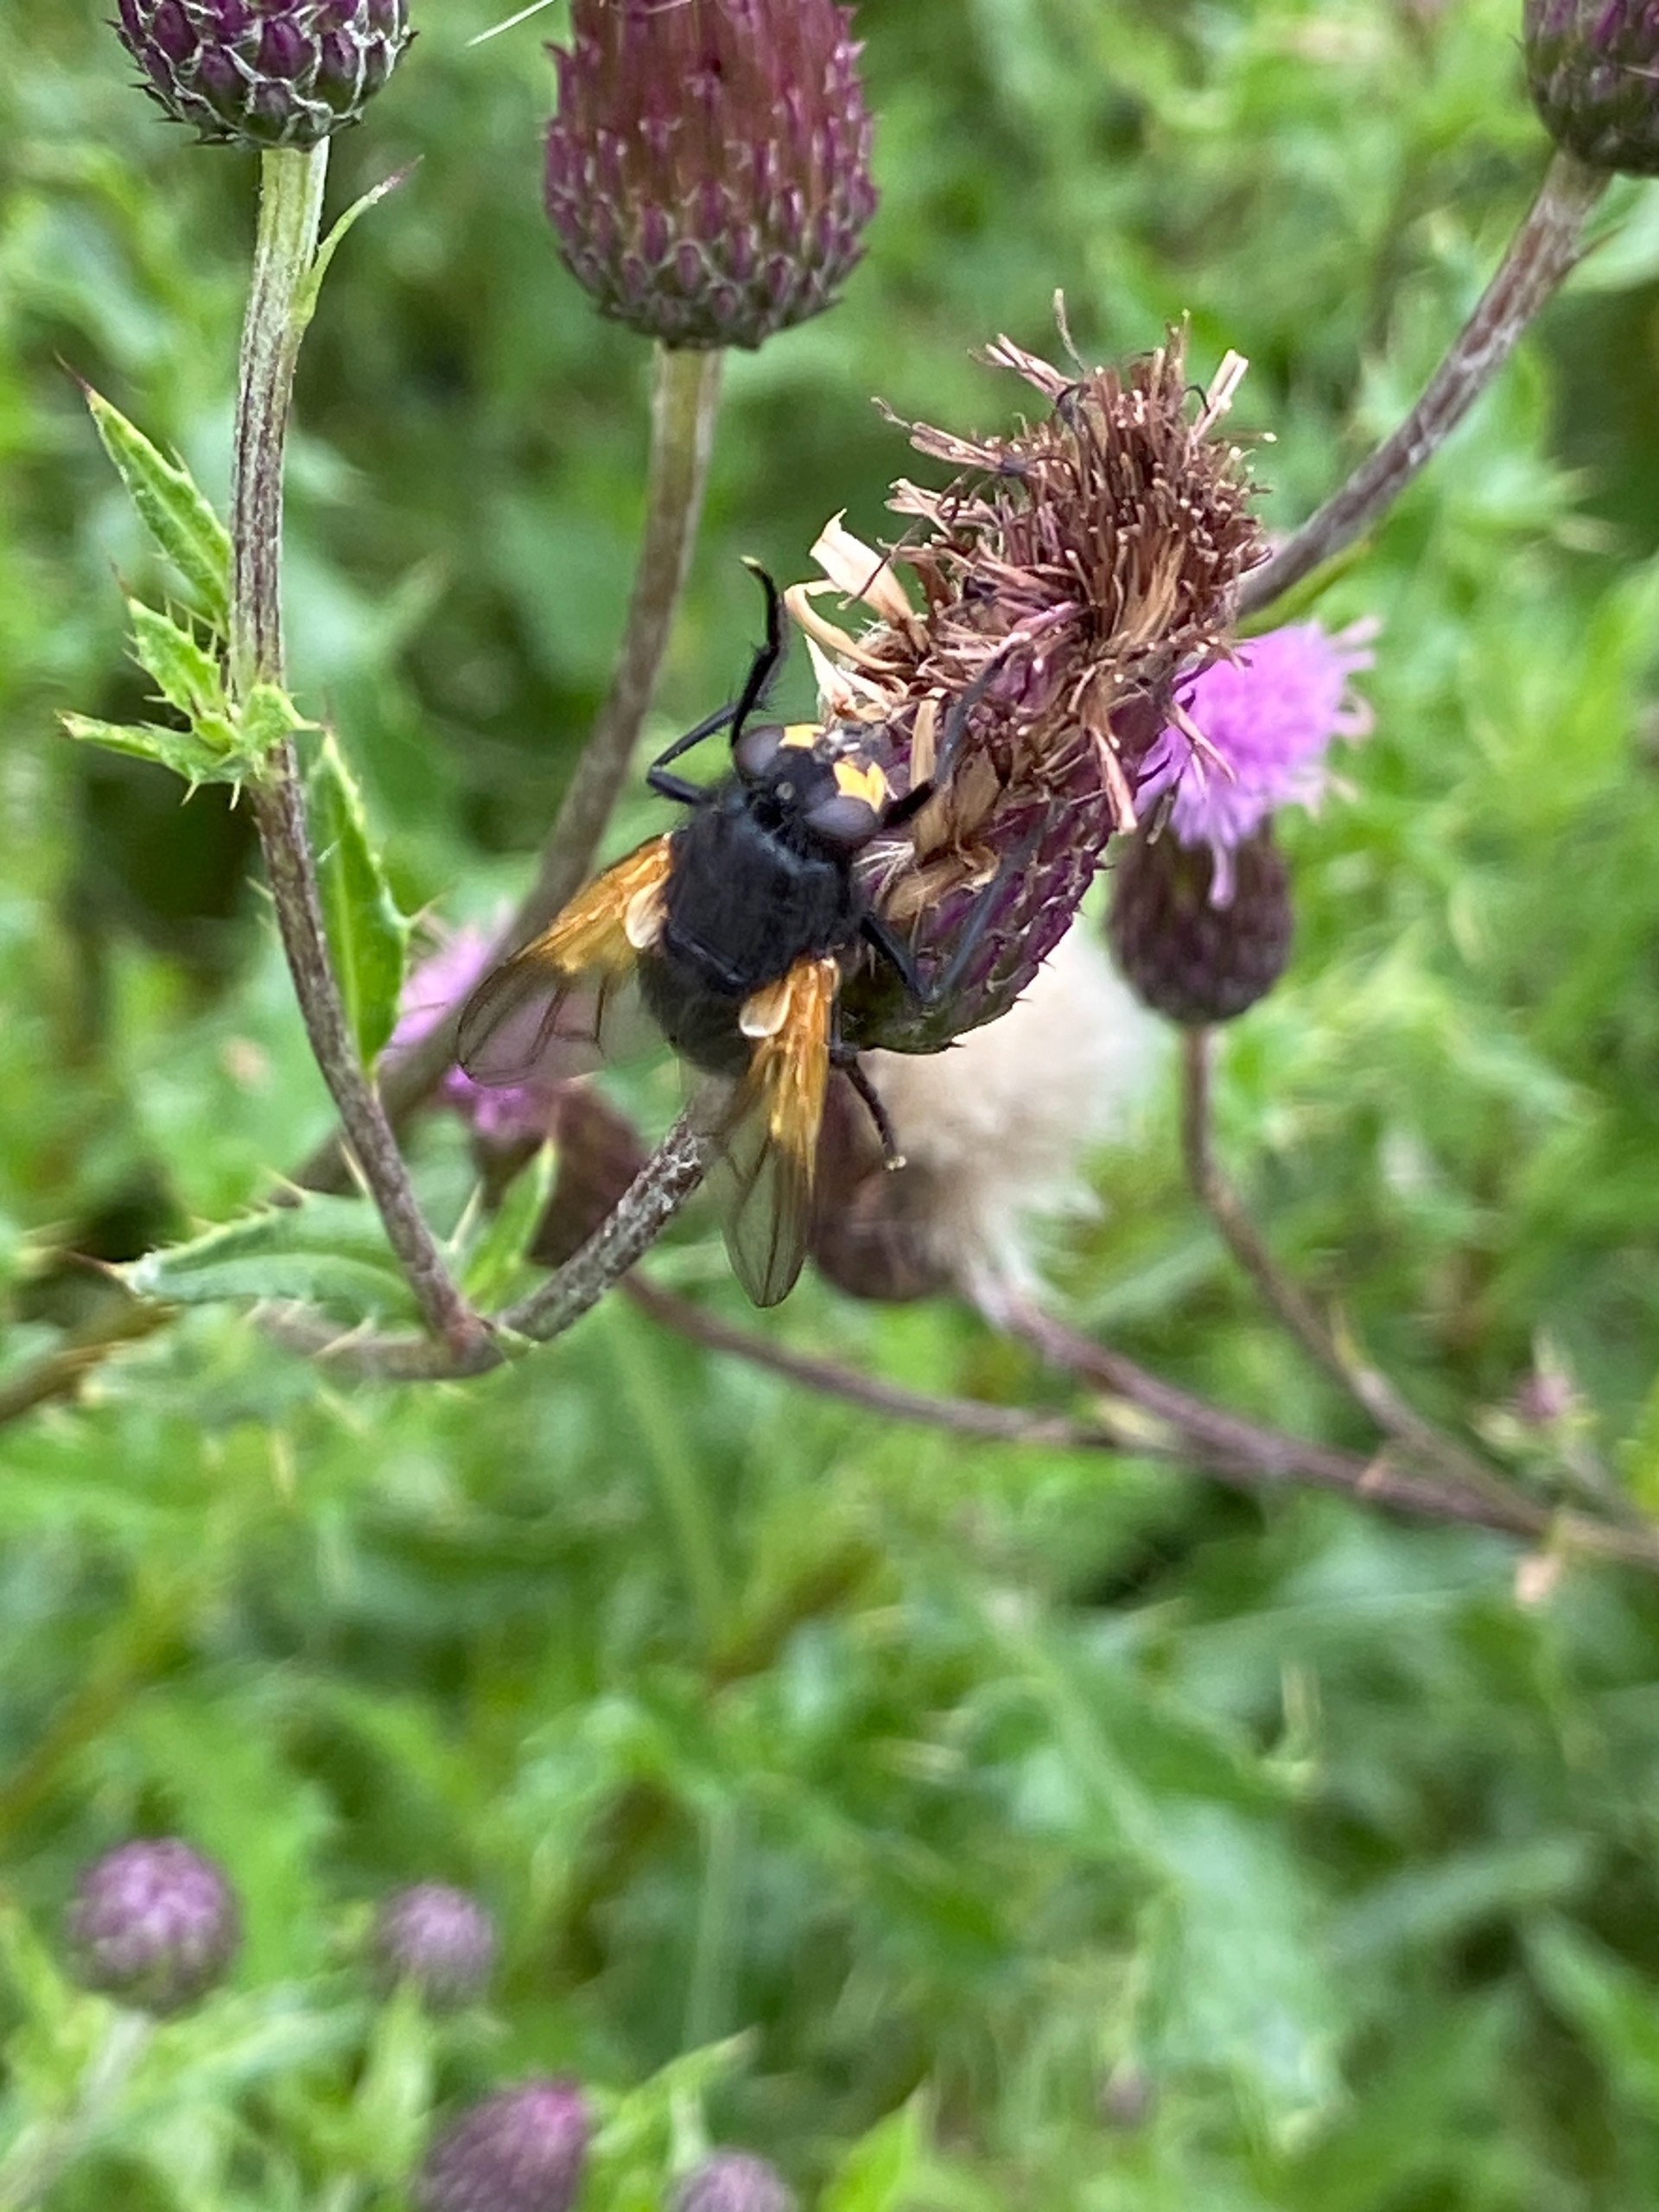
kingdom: Animalia
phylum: Arthropoda
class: Insecta
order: Diptera
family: Muscidae
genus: Mesembrina
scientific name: Mesembrina meridiana
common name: Gulvinget flue
